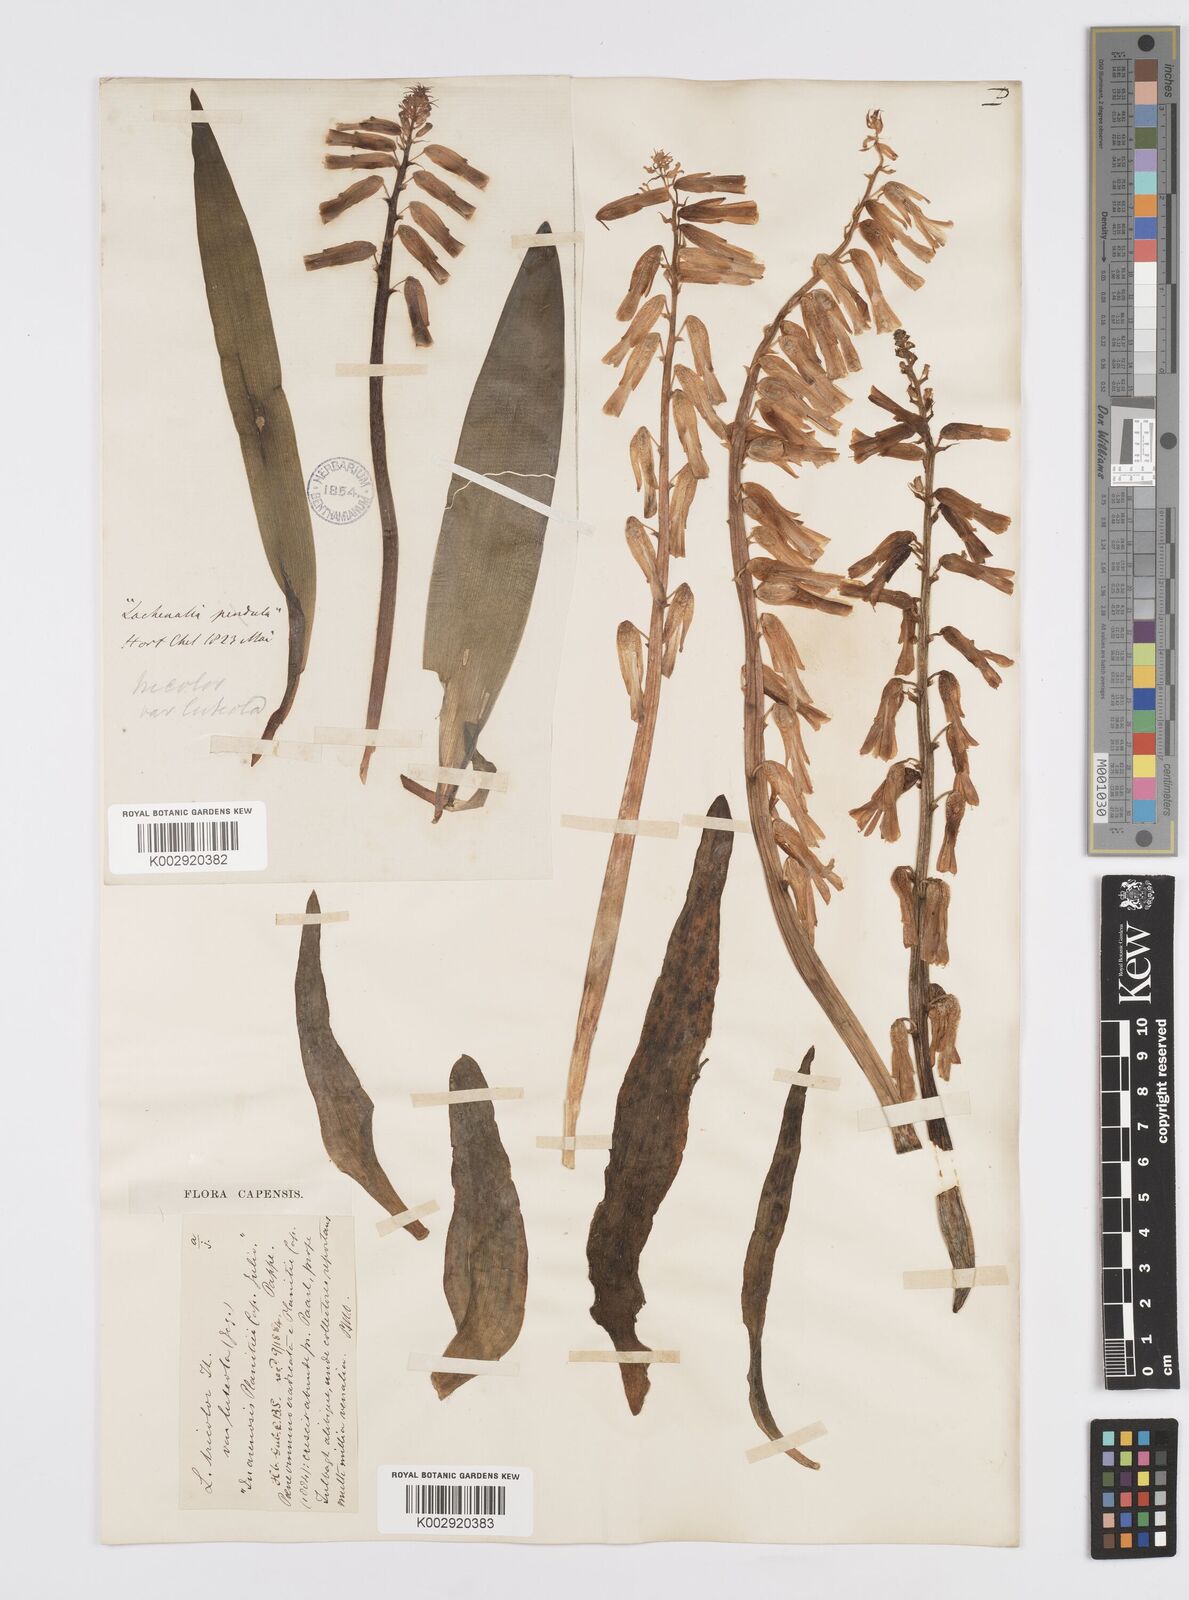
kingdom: Plantae
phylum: Tracheophyta
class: Liliopsida
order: Asparagales
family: Asparagaceae
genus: Lachenalia
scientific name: Lachenalia
